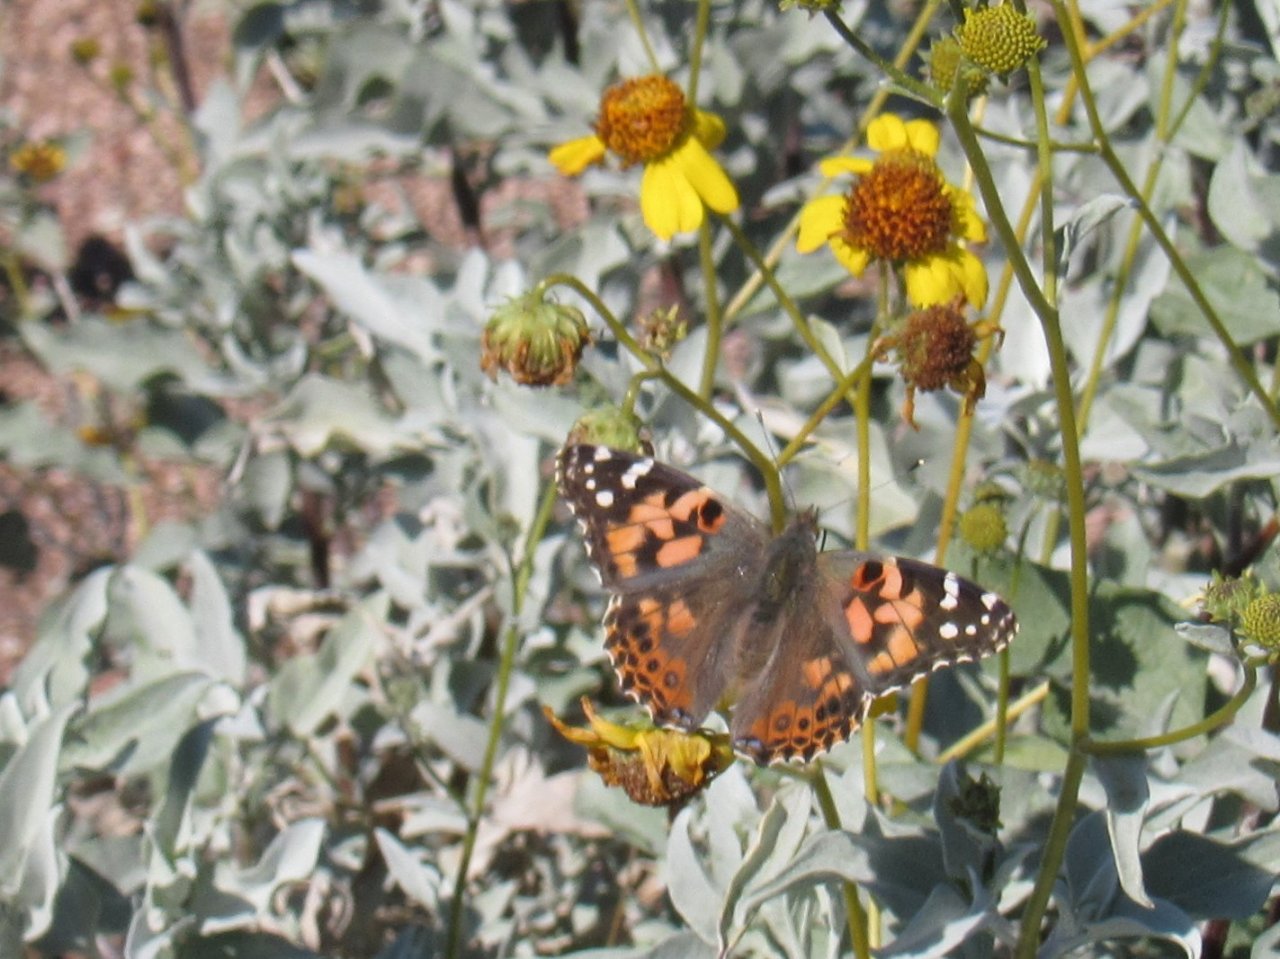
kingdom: Animalia
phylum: Arthropoda
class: Insecta
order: Lepidoptera
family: Nymphalidae
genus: Vanessa
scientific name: Vanessa cardui
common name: Painted Lady
